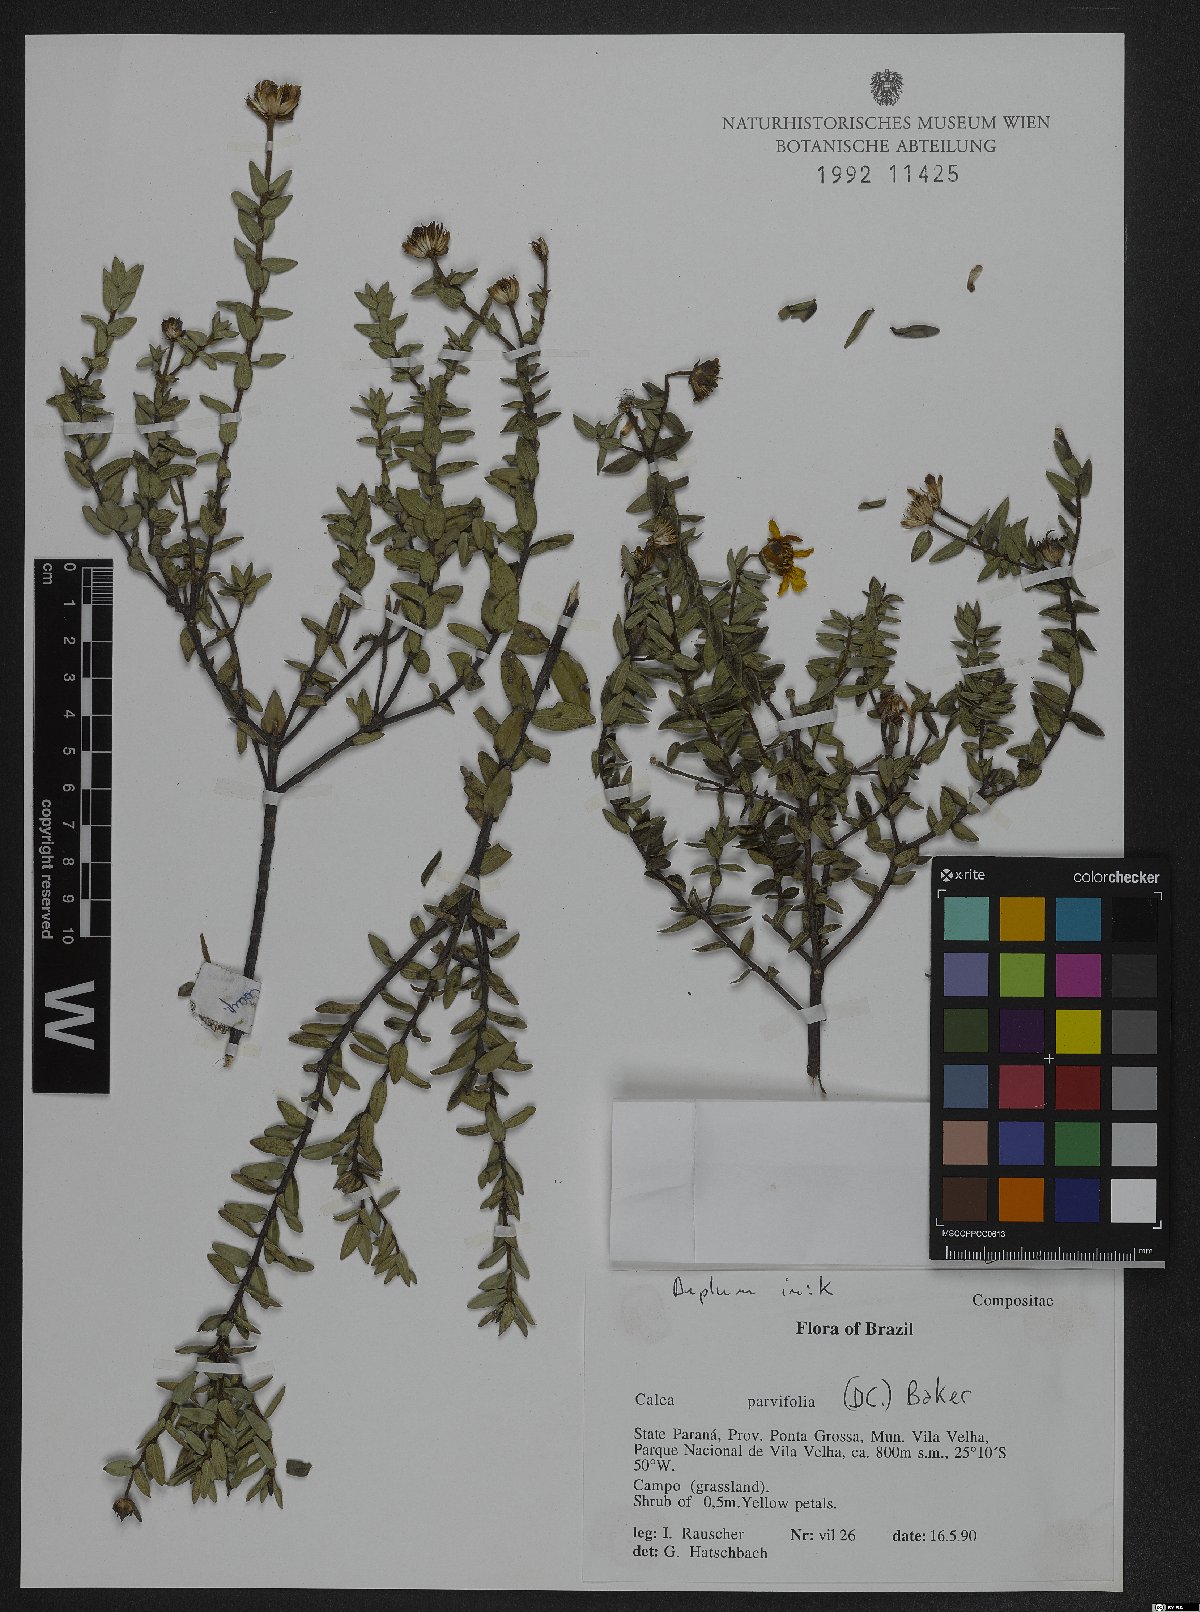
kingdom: Plantae
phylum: Tracheophyta
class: Magnoliopsida
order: Asterales
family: Asteraceae
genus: Calea
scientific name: Calea parvifolia
